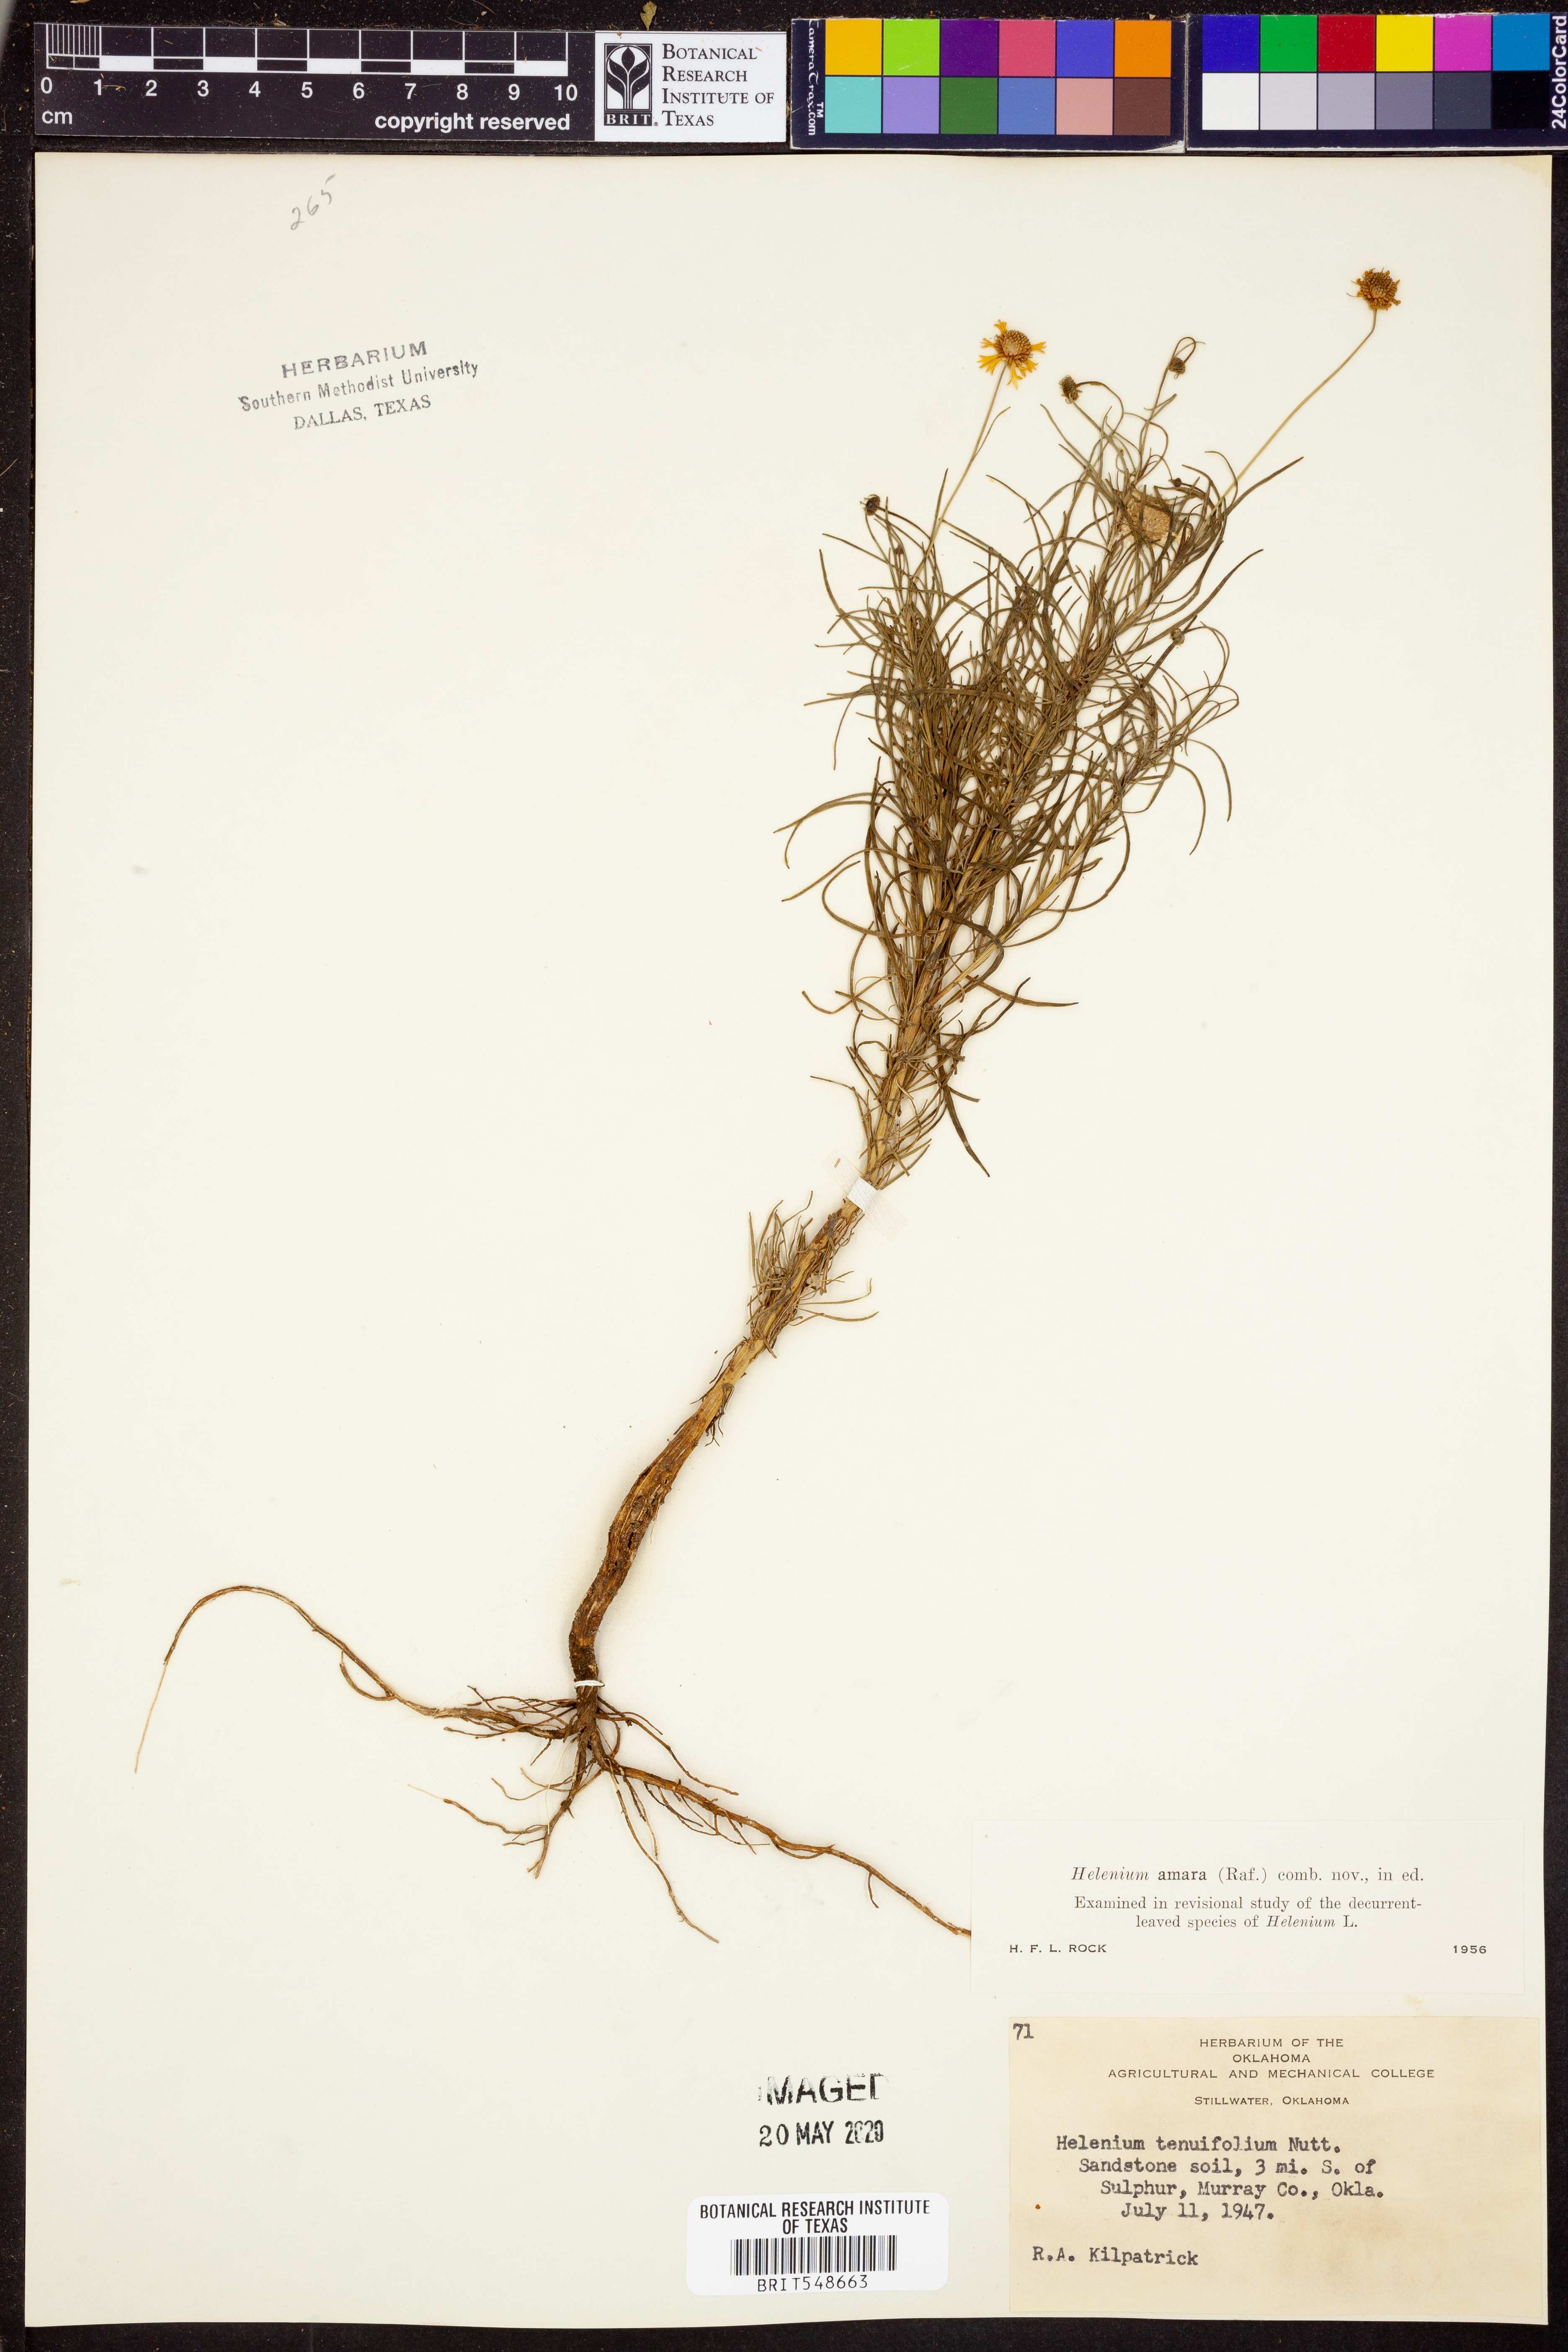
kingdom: Plantae
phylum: Tracheophyta
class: Magnoliopsida
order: Asterales
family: Asteraceae
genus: Helenium
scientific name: Helenium amarum
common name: Bitter sneezeweed
